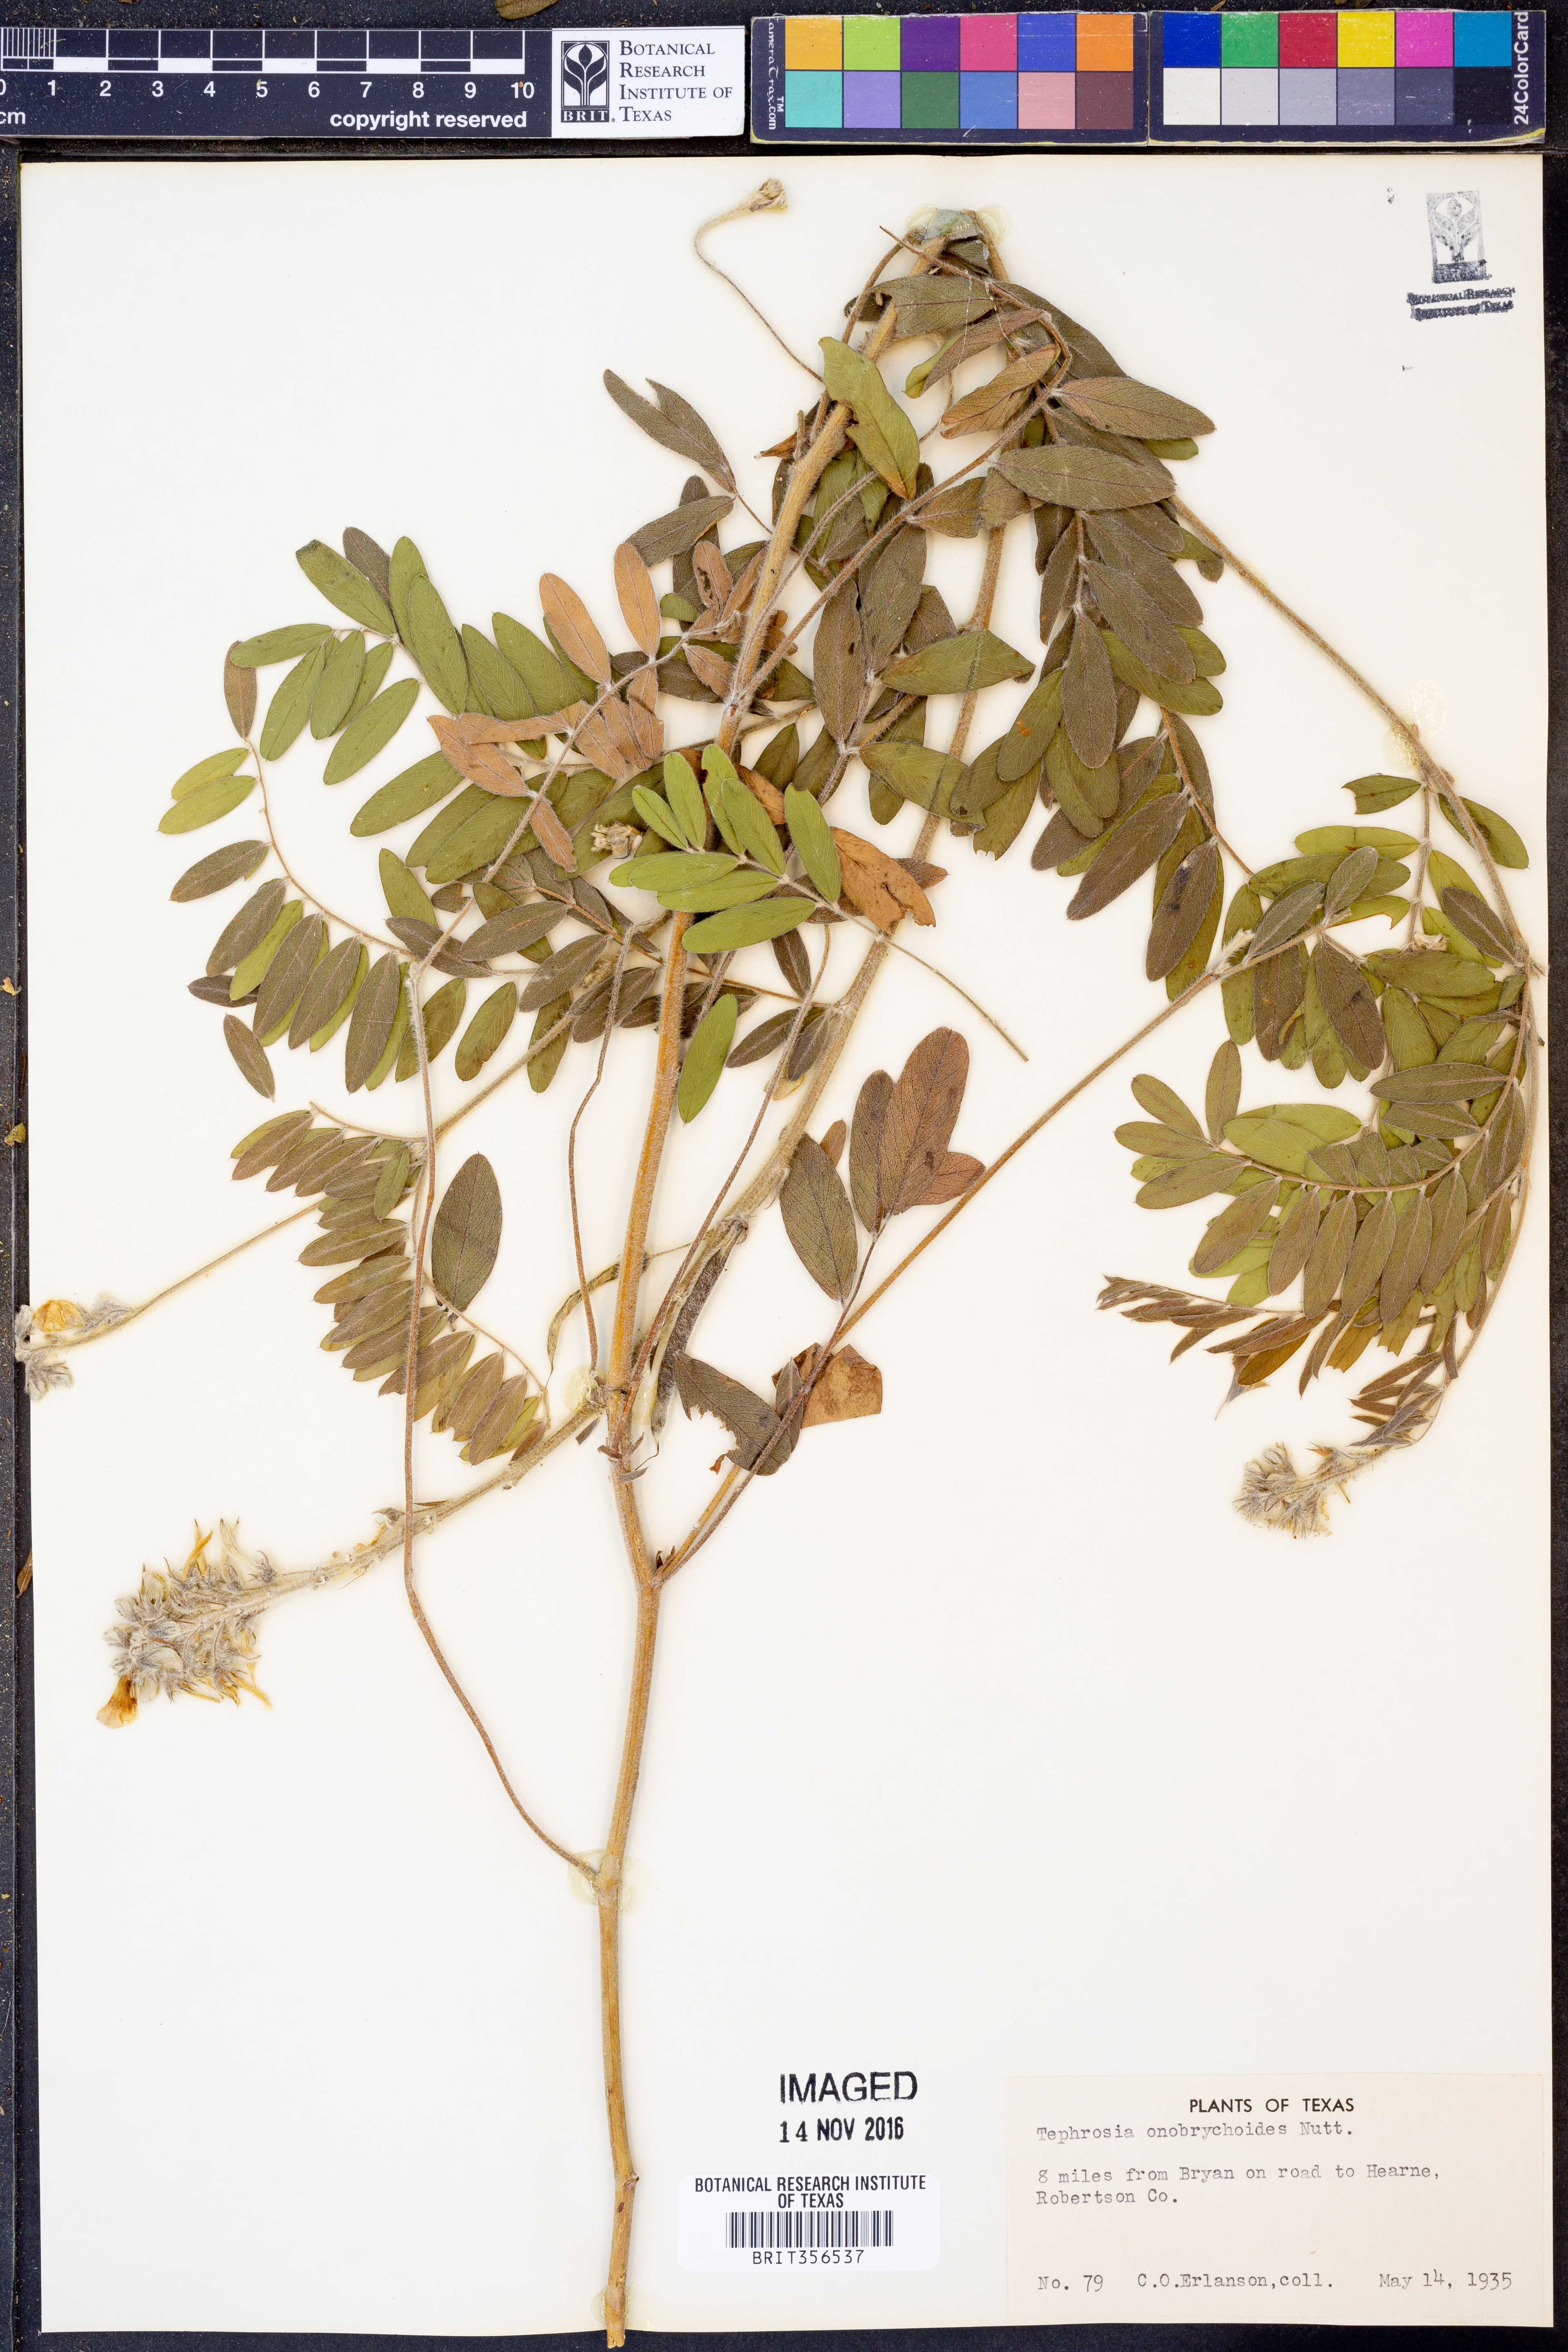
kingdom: Plantae
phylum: Tracheophyta
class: Magnoliopsida
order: Fabales
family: Fabaceae
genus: Tephrosia
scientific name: Tephrosia onobrychoides
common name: Multi-bloom hoary-pea
